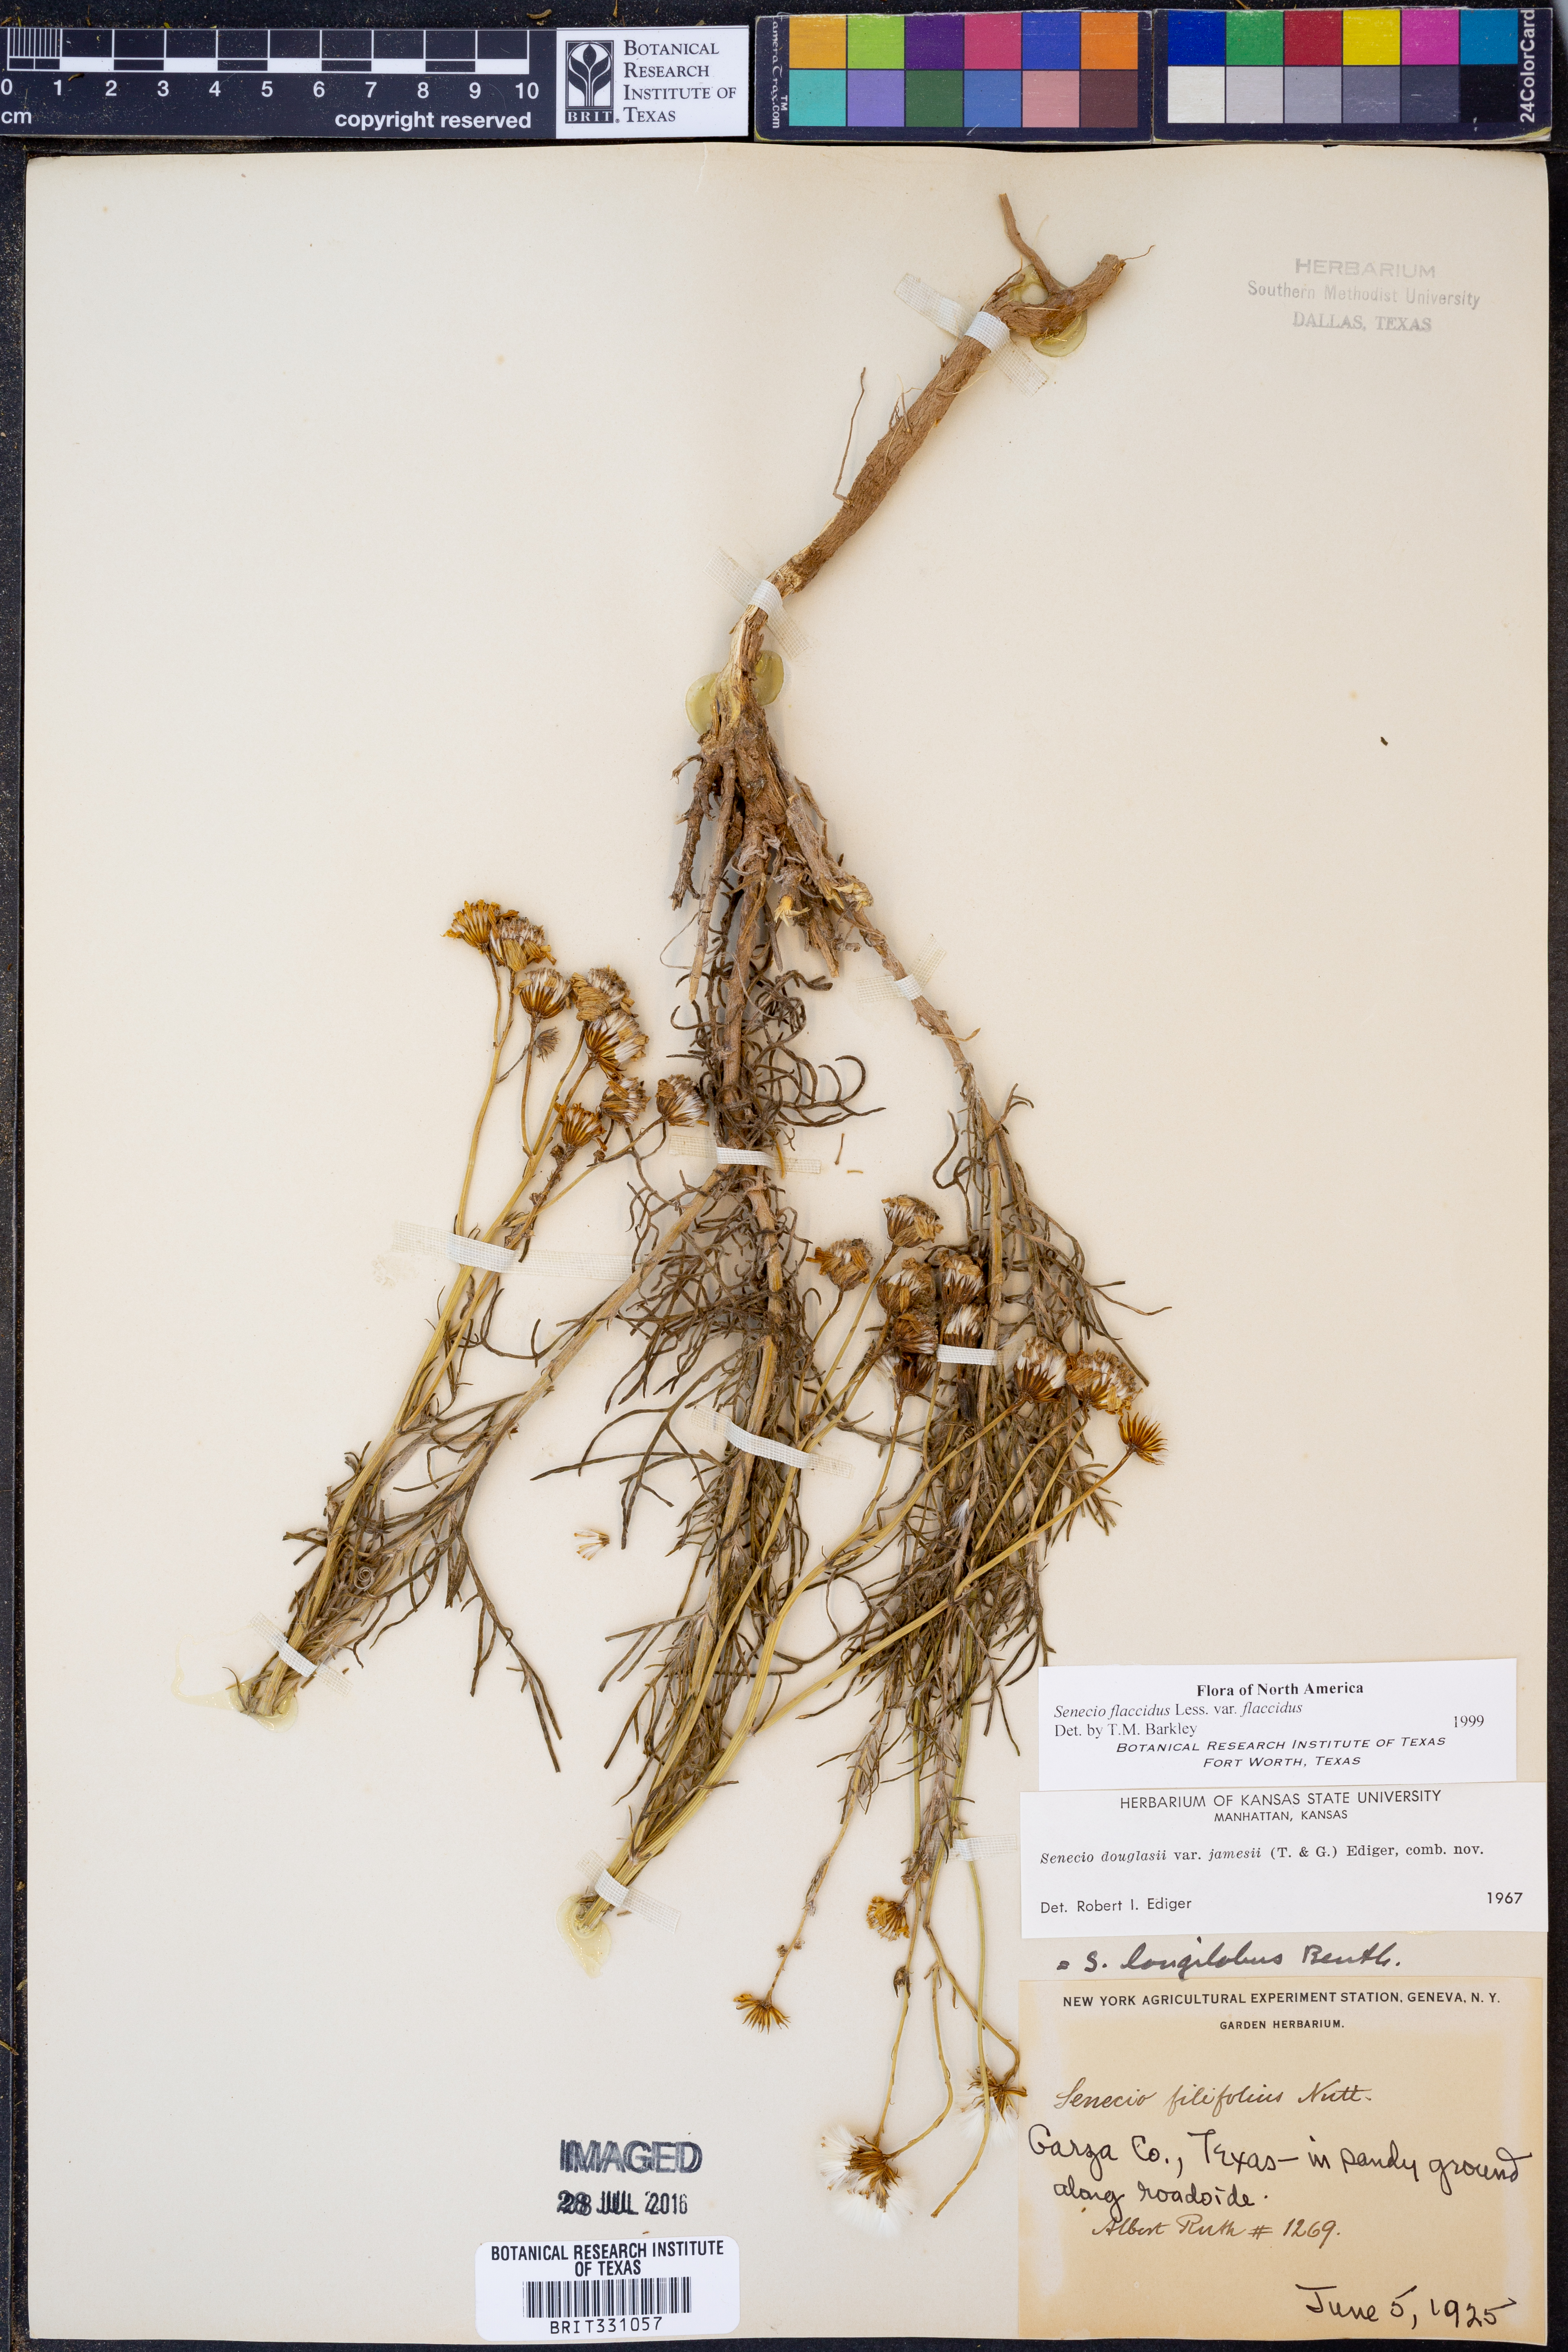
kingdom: Plantae
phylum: Tracheophyta
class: Magnoliopsida
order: Asterales
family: Asteraceae
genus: Senecio
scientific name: Senecio flaccidus
